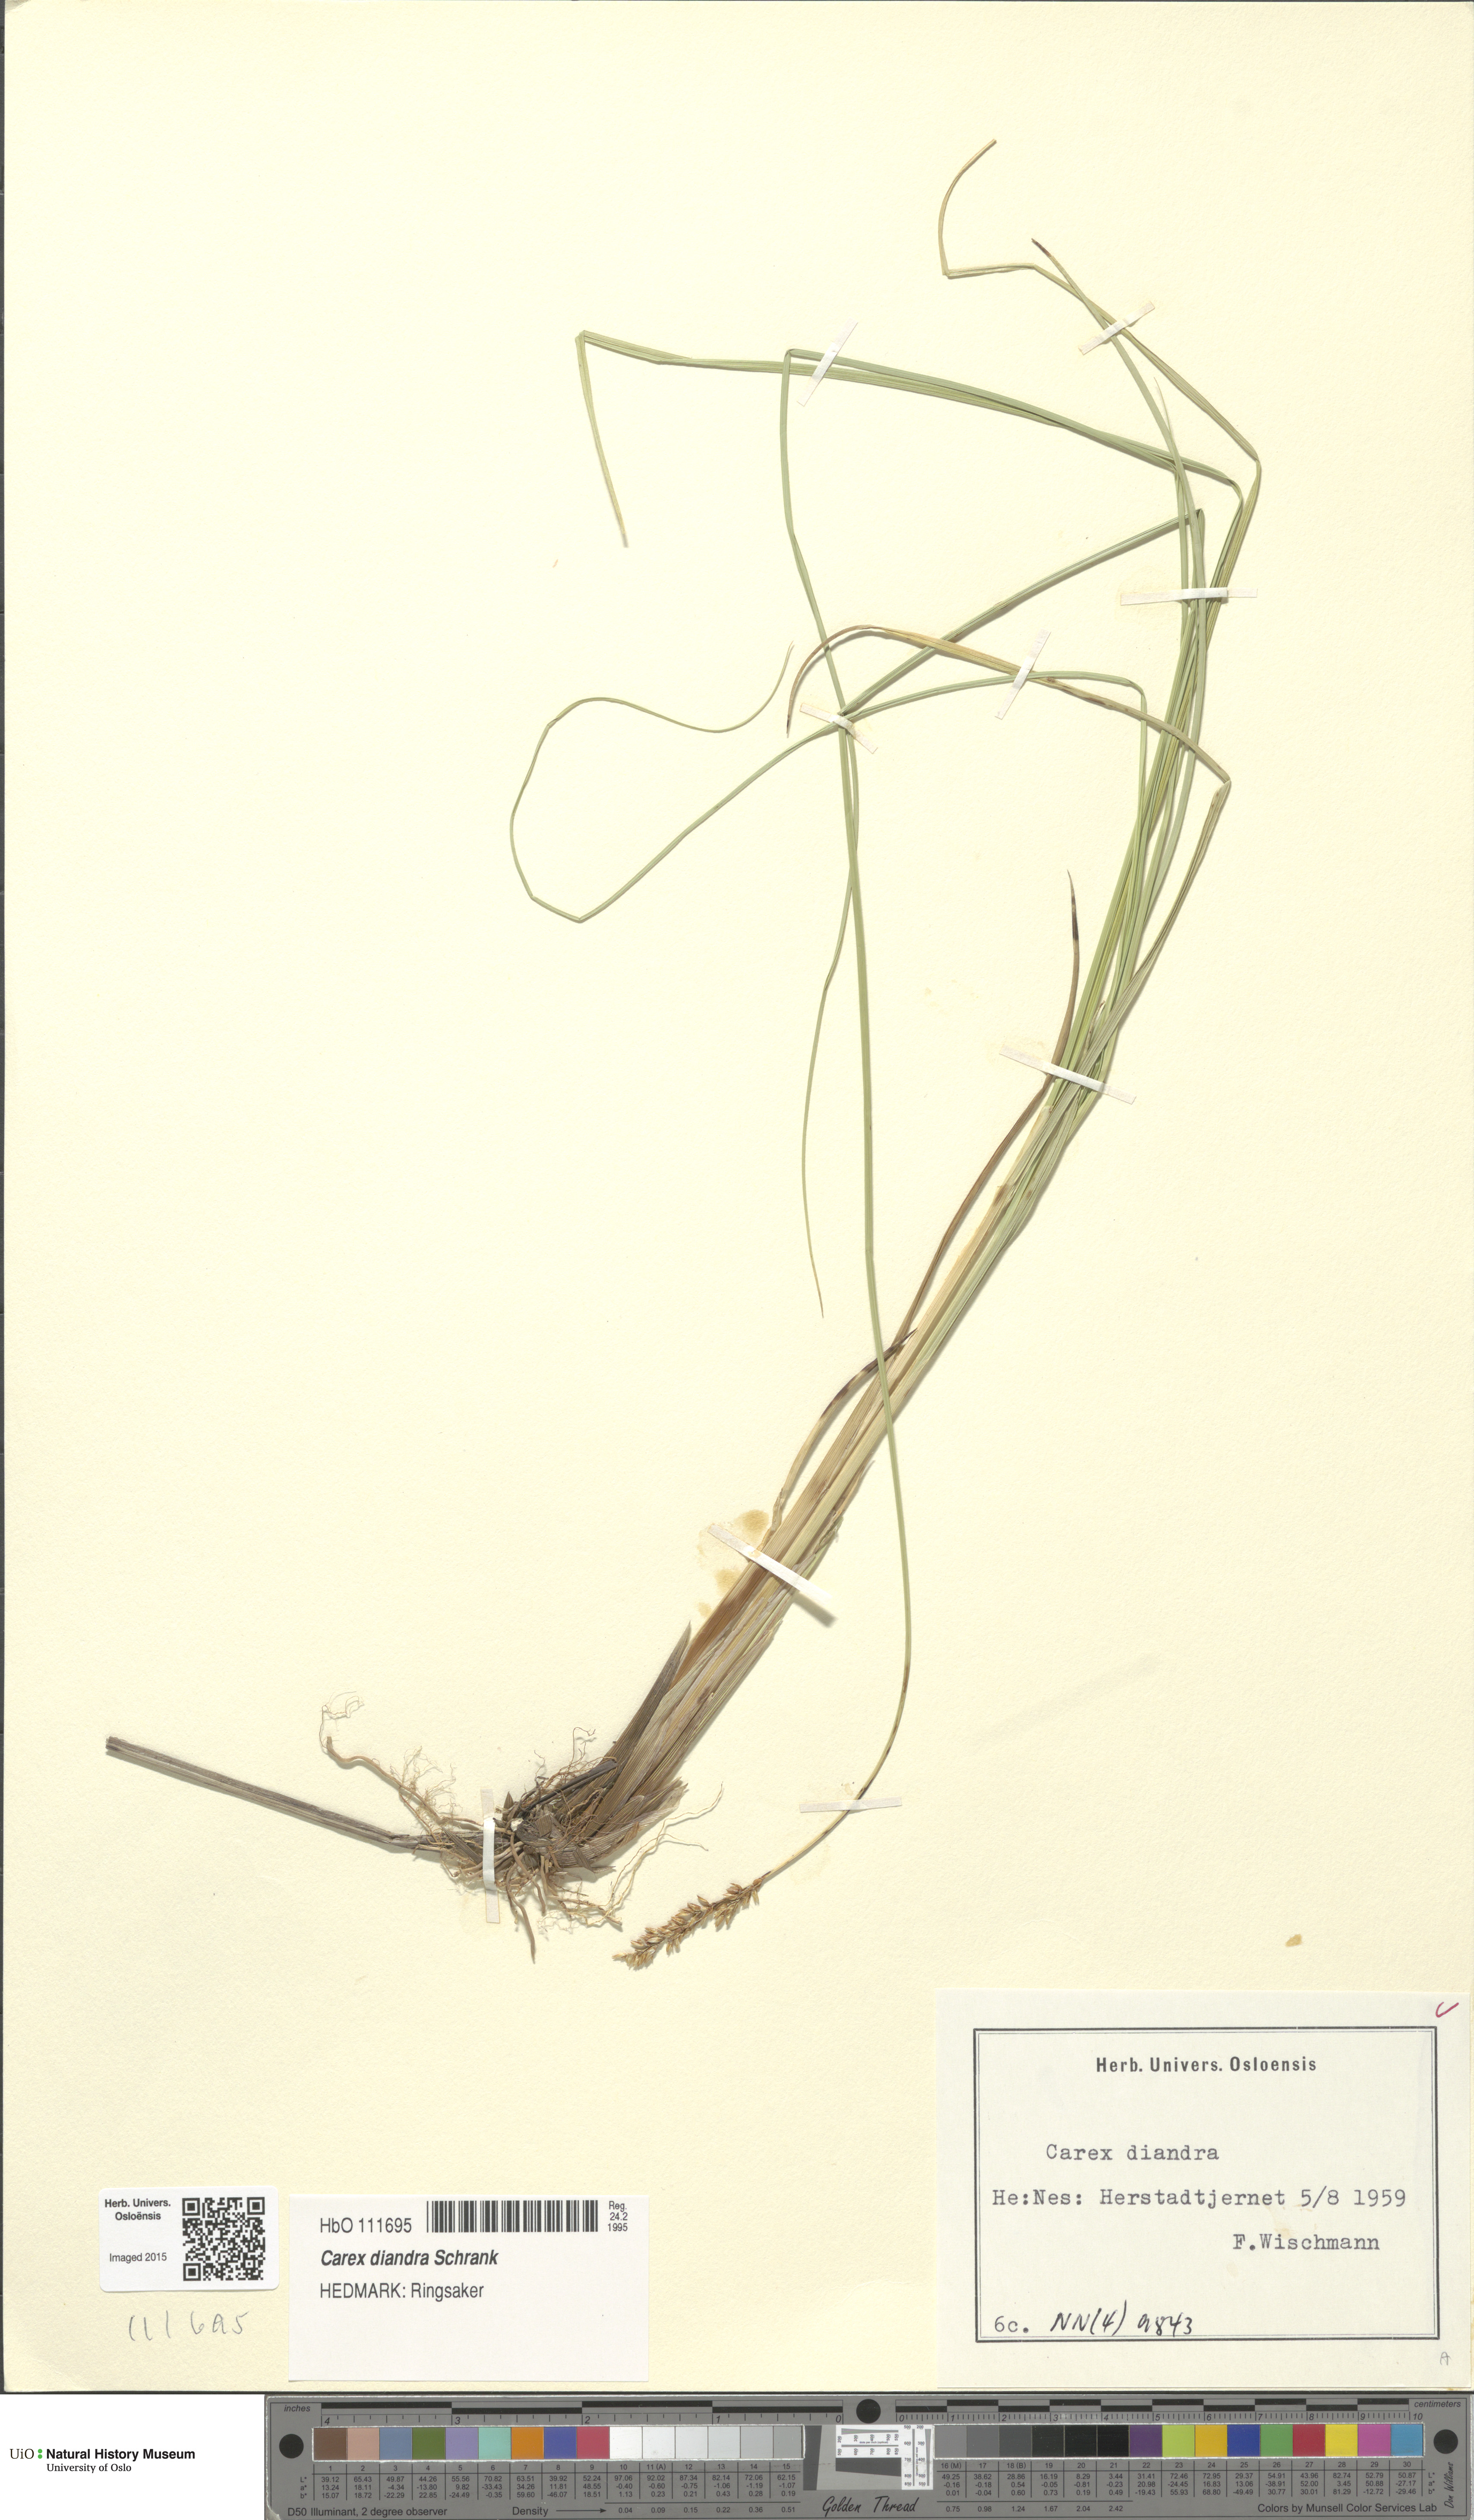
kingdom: Plantae
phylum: Tracheophyta
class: Liliopsida
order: Poales
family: Cyperaceae
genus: Carex
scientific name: Carex diandra
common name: Lesser tussock-sedge
